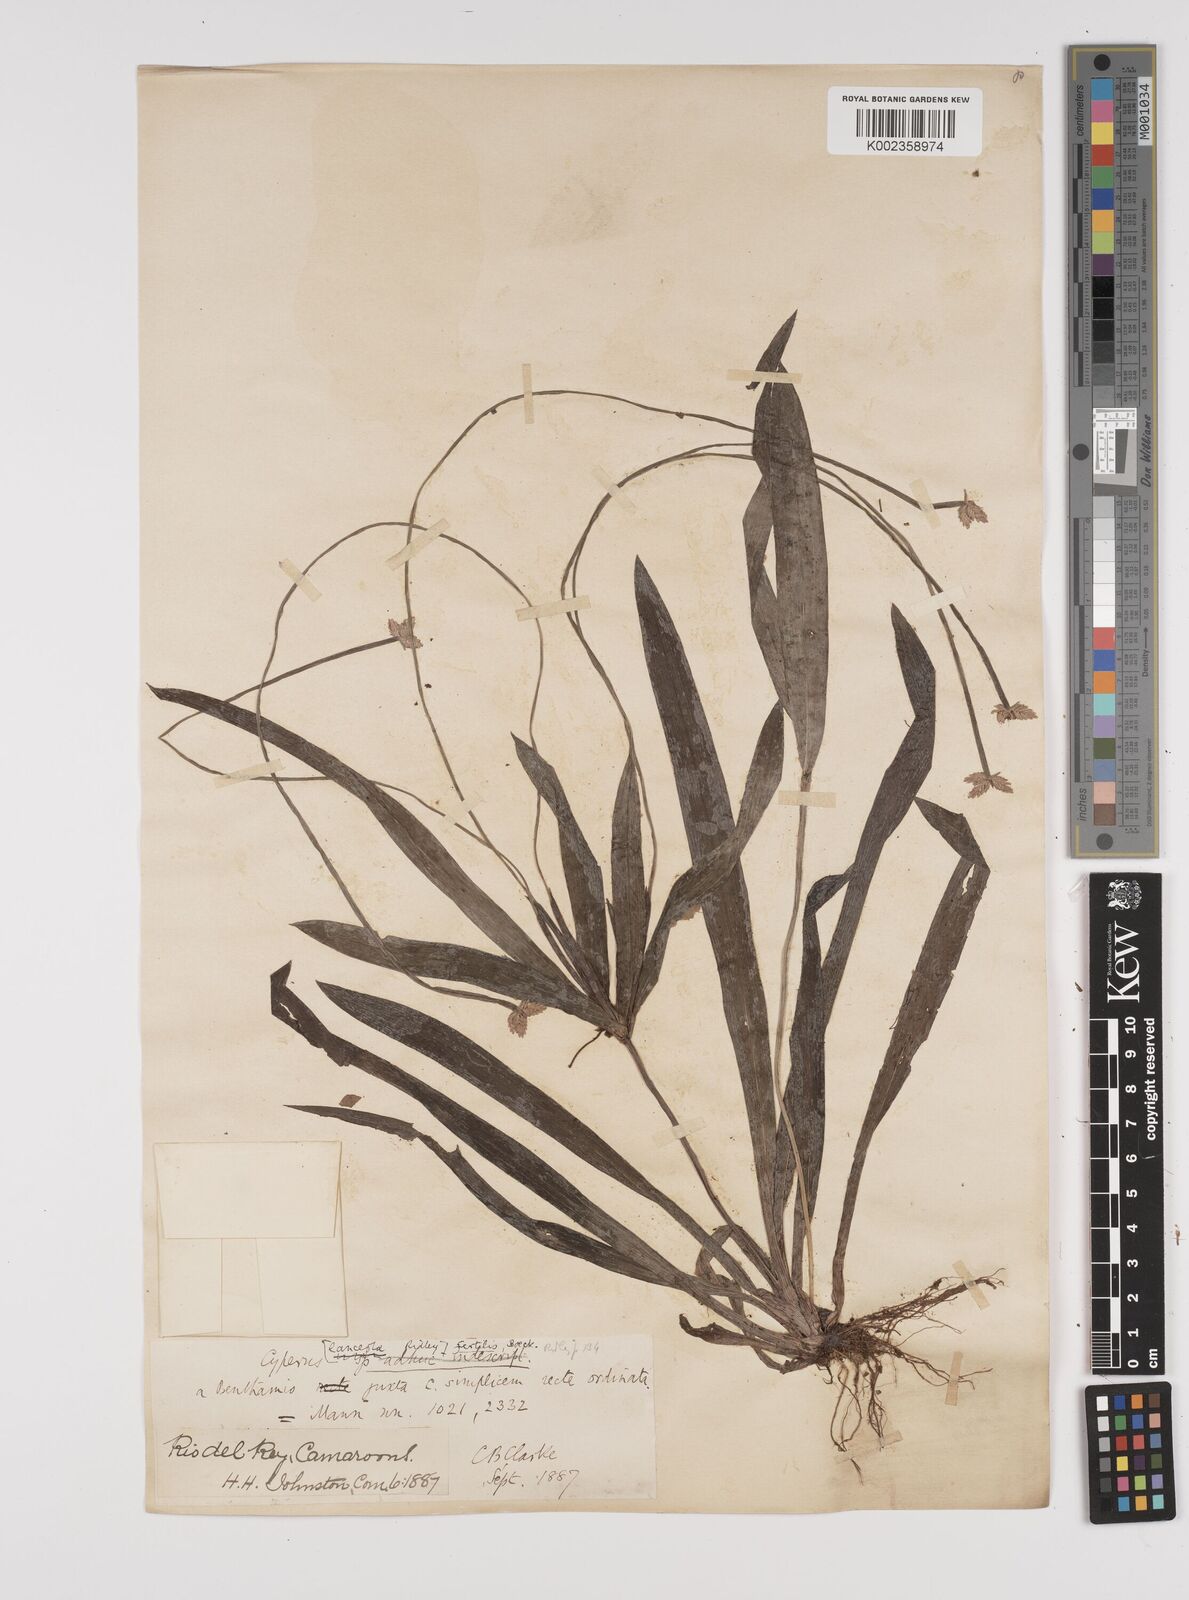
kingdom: Plantae
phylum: Tracheophyta
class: Liliopsida
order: Poales
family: Cyperaceae
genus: Cyperus
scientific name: Cyperus fertilis
